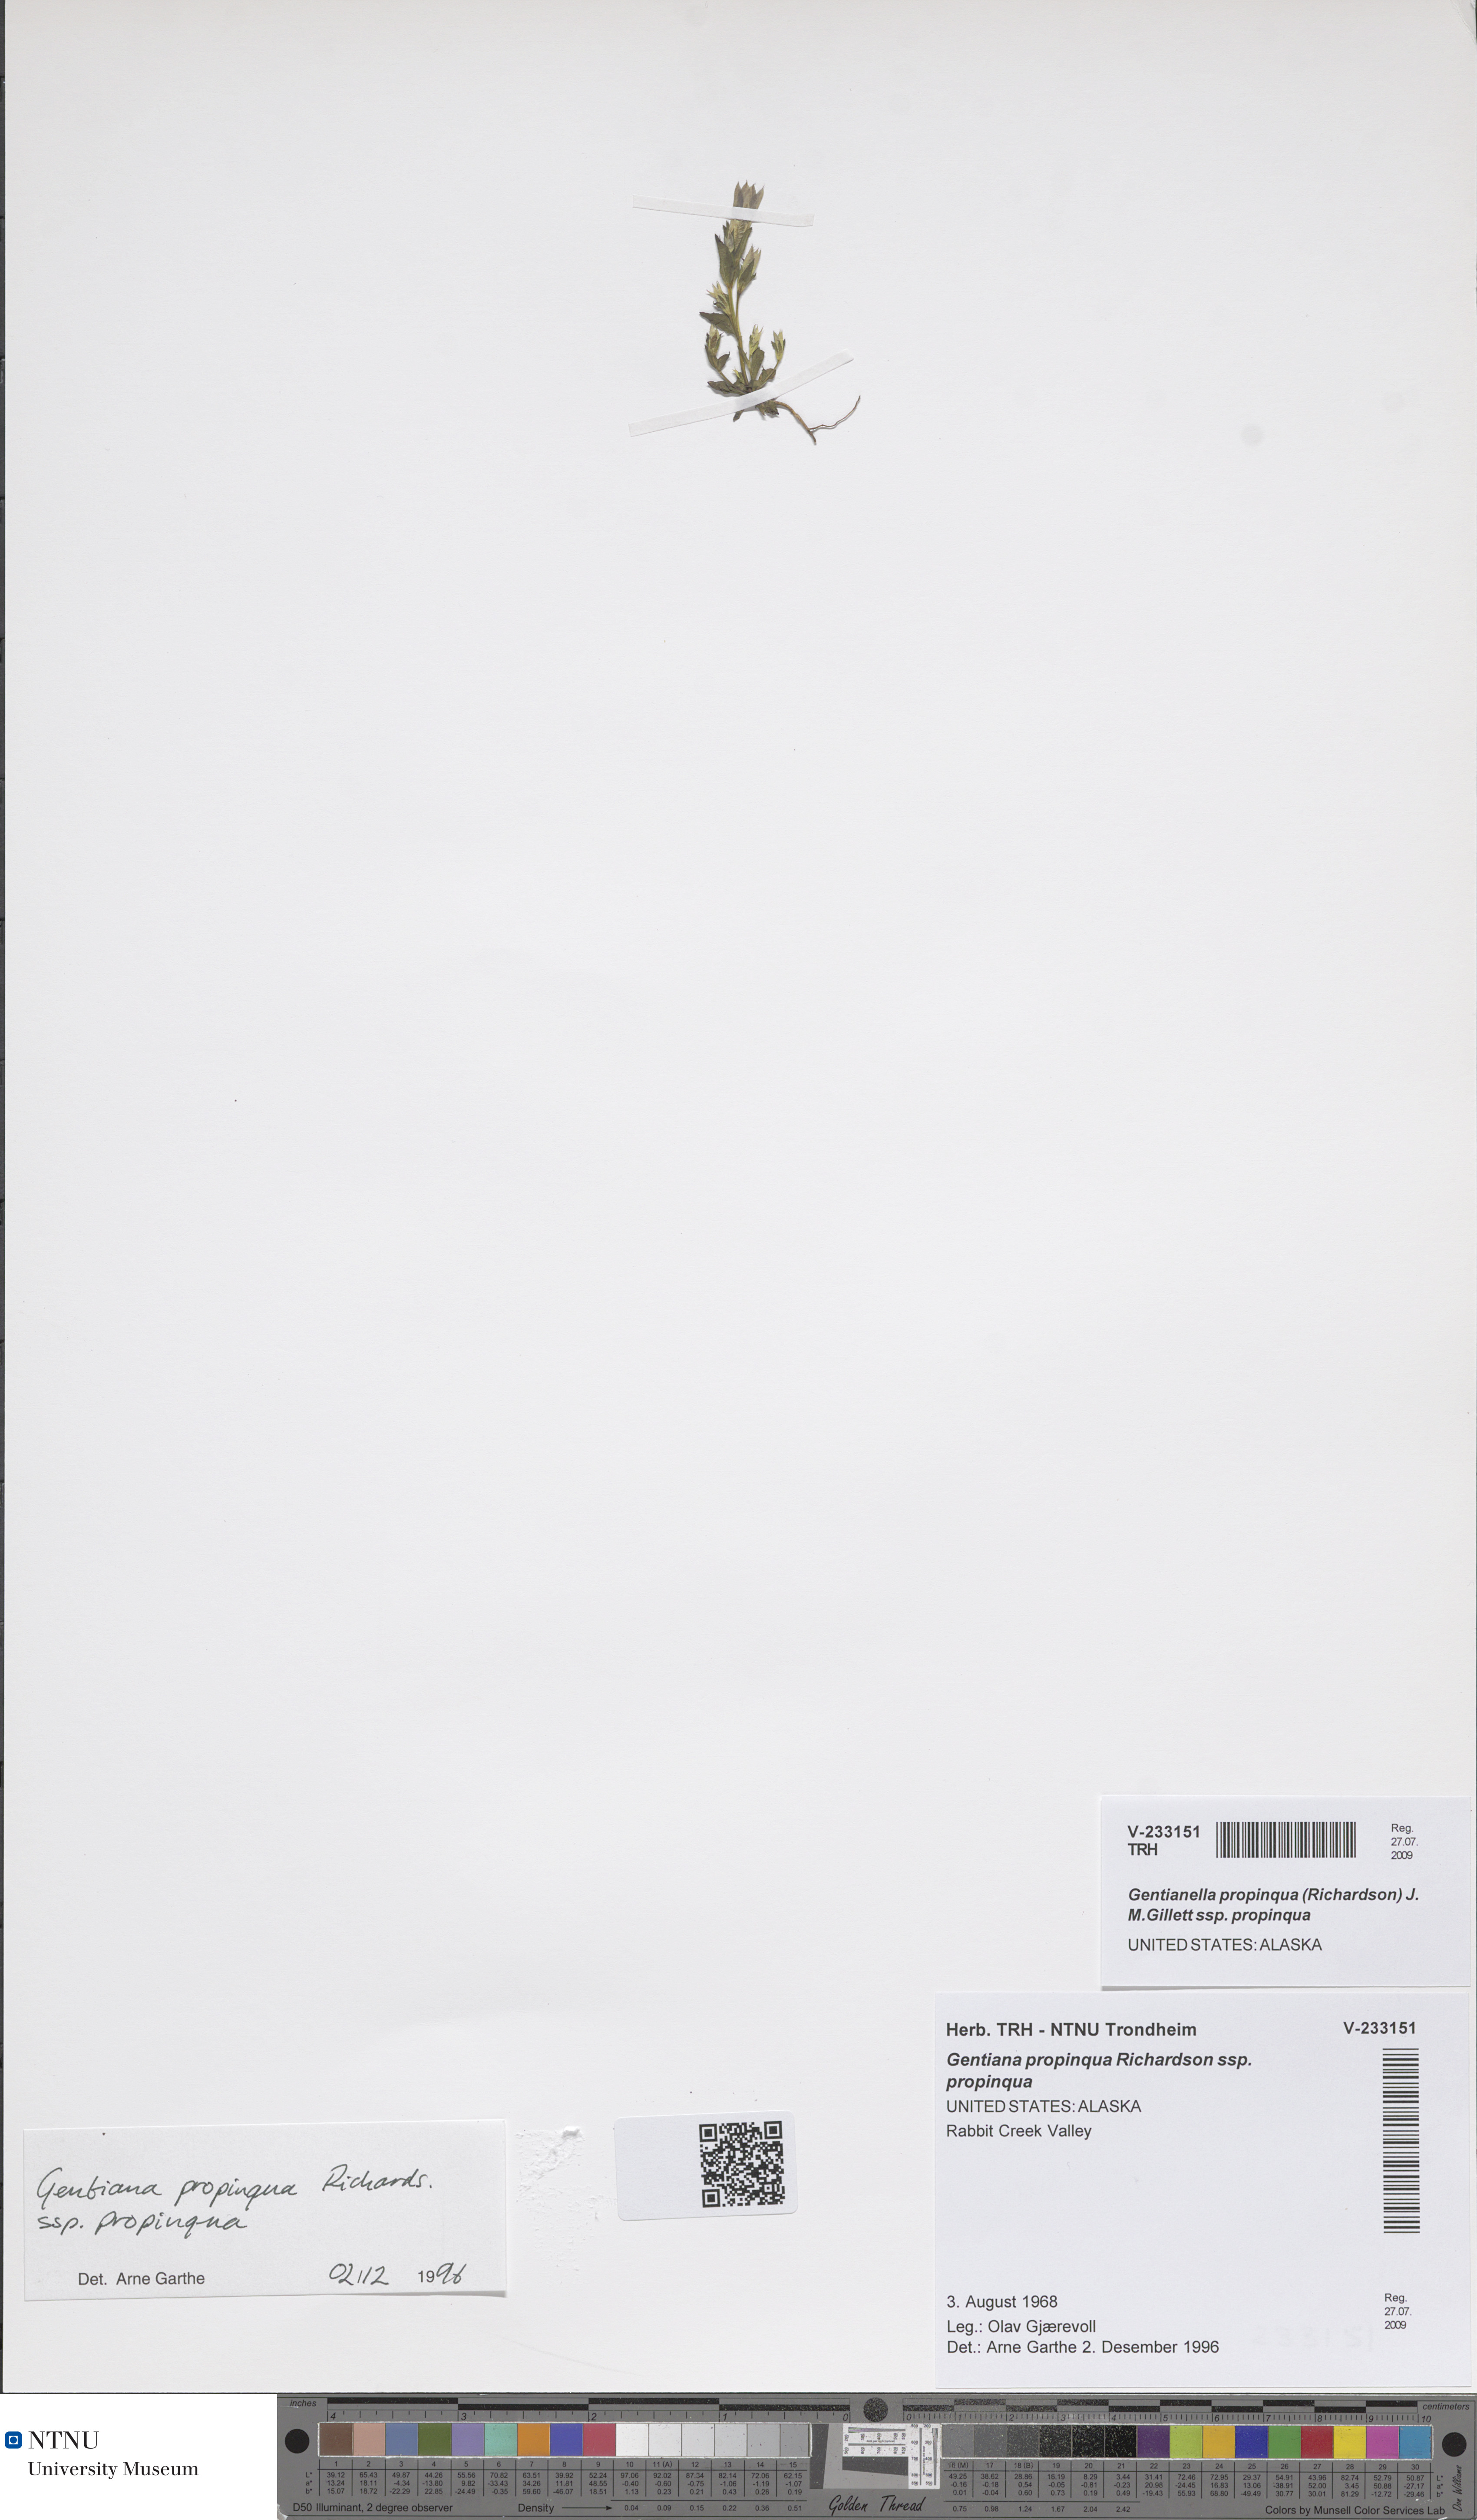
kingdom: Plantae
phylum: Tracheophyta
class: Magnoliopsida
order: Gentianales
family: Gentianaceae
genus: Gentianella
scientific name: Gentianella propinqua
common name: Four-parted dwarf-gentian
